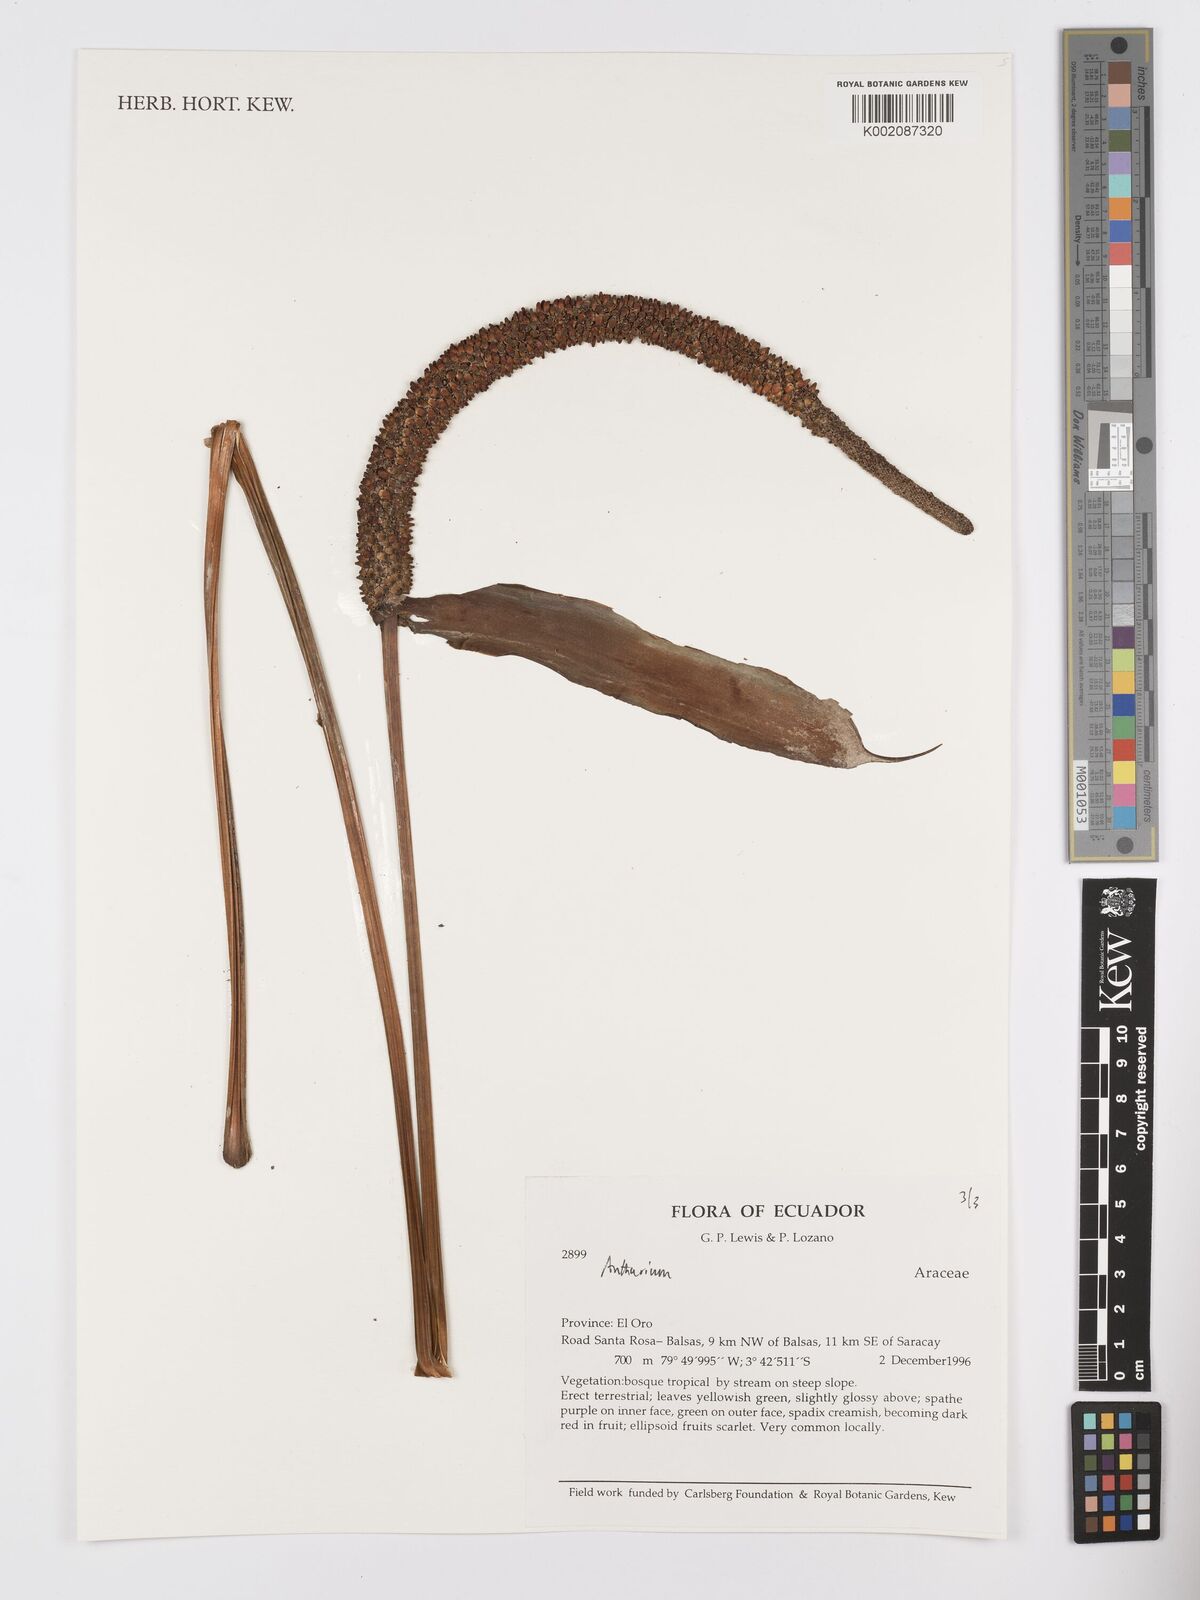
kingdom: Plantae
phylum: Tracheophyta
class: Liliopsida
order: Alismatales
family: Araceae
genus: Anthurium
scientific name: Anthurium
